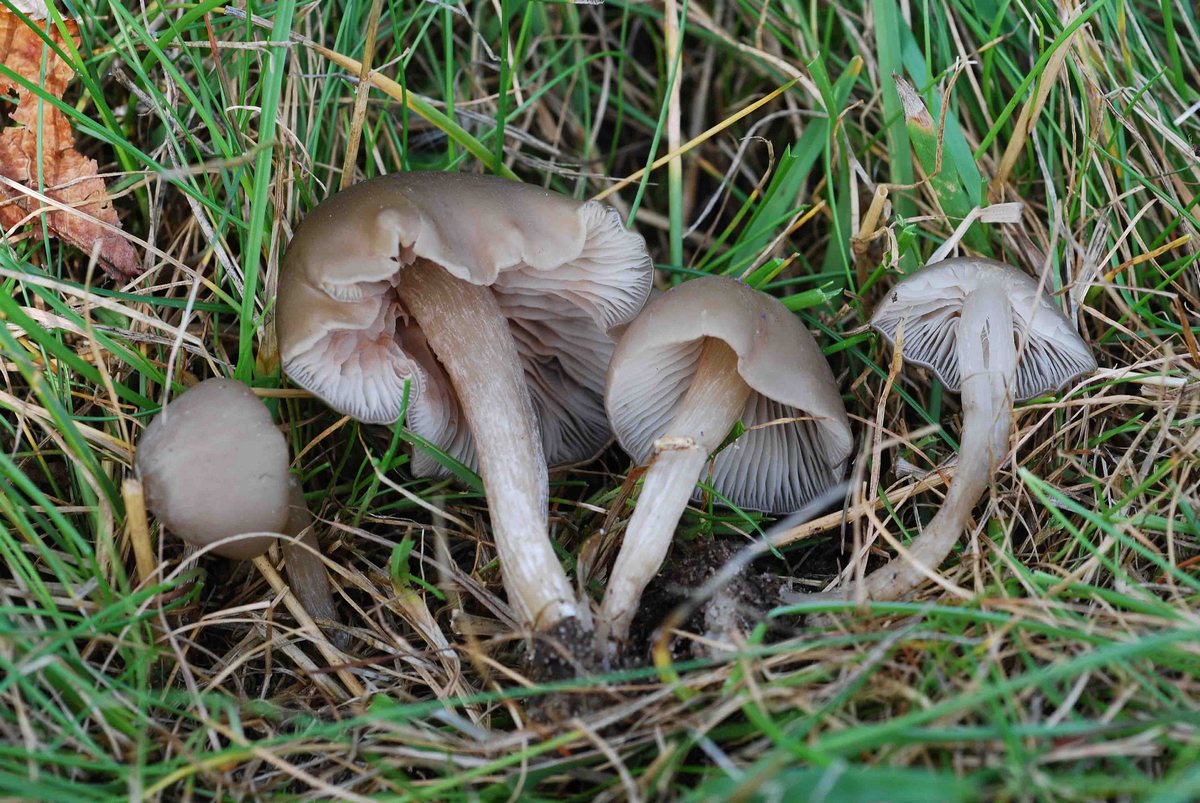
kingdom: Fungi
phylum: Basidiomycota
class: Agaricomycetes
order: Agaricales
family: Entolomataceae
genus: Entoloma
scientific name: Entoloma sericeum
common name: silkeglinsende rødblad
